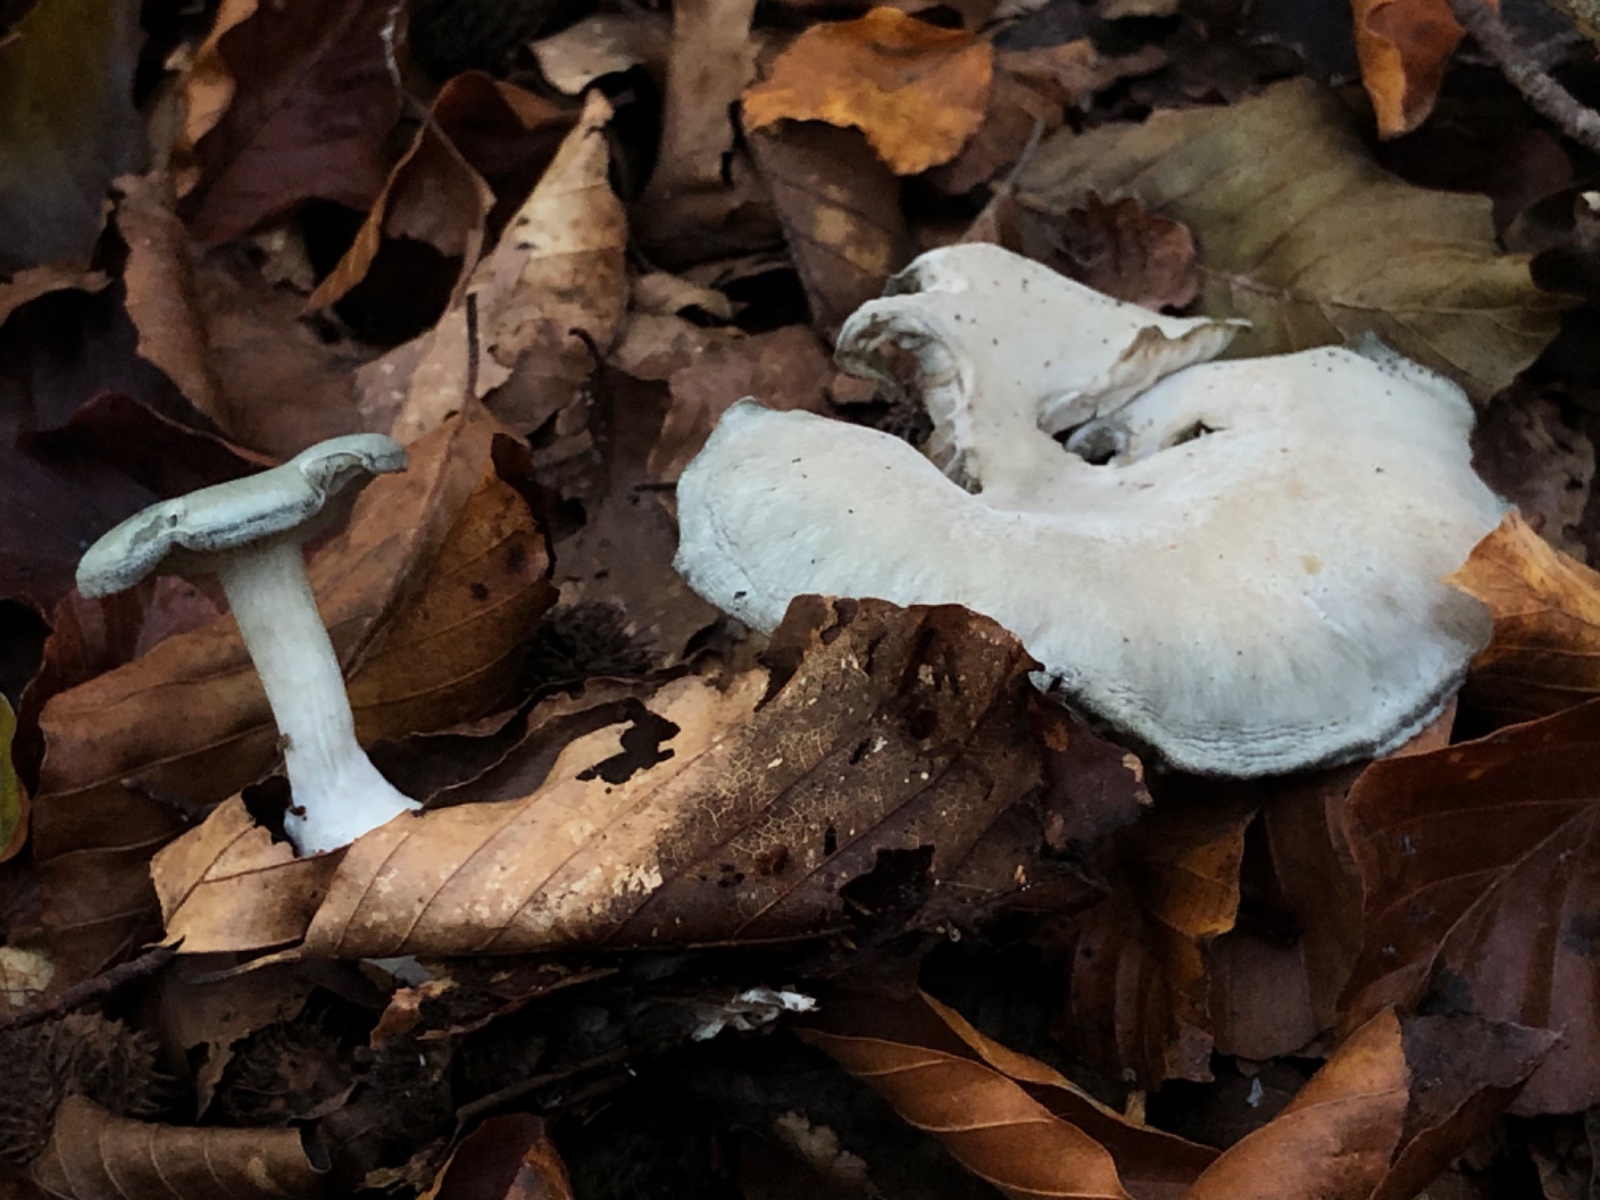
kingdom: Fungi
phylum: Basidiomycota
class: Agaricomycetes
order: Agaricales
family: Tricholomataceae
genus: Clitocybe
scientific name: Clitocybe odora
